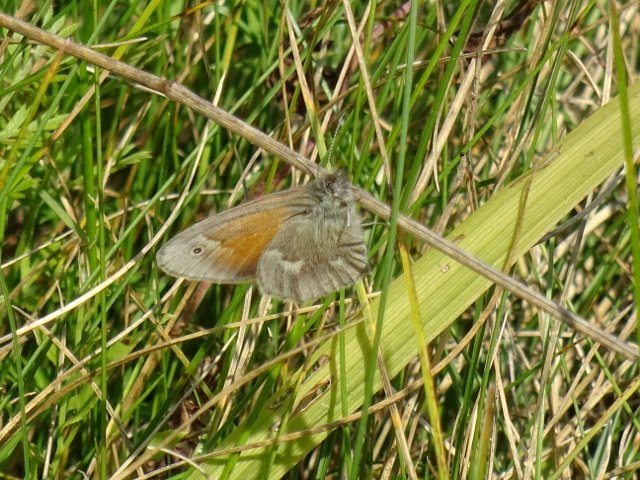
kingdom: Animalia
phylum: Arthropoda
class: Insecta
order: Lepidoptera
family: Nymphalidae
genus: Coenonympha
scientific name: Coenonympha tullia
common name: Large Heath
